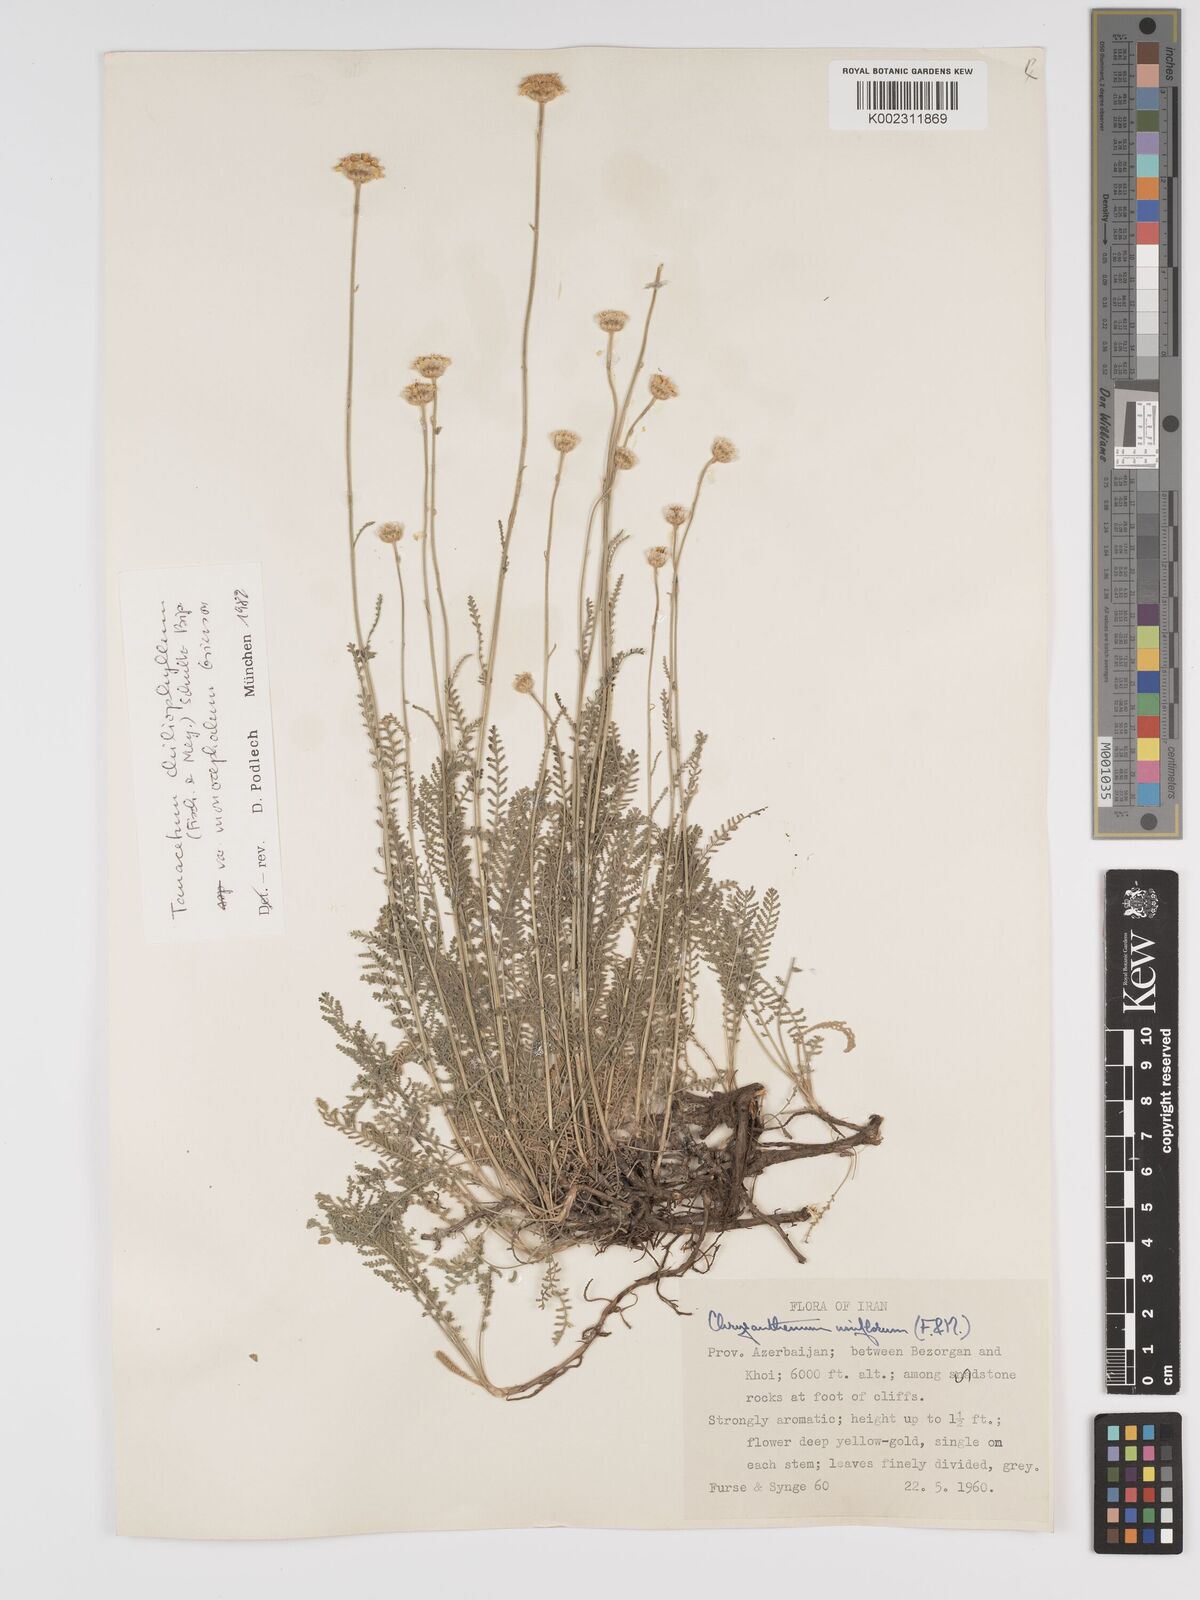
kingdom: Plantae
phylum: Tracheophyta
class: Magnoliopsida
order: Asterales
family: Asteraceae
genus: Tanacetum
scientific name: Tanacetum uniflorum
